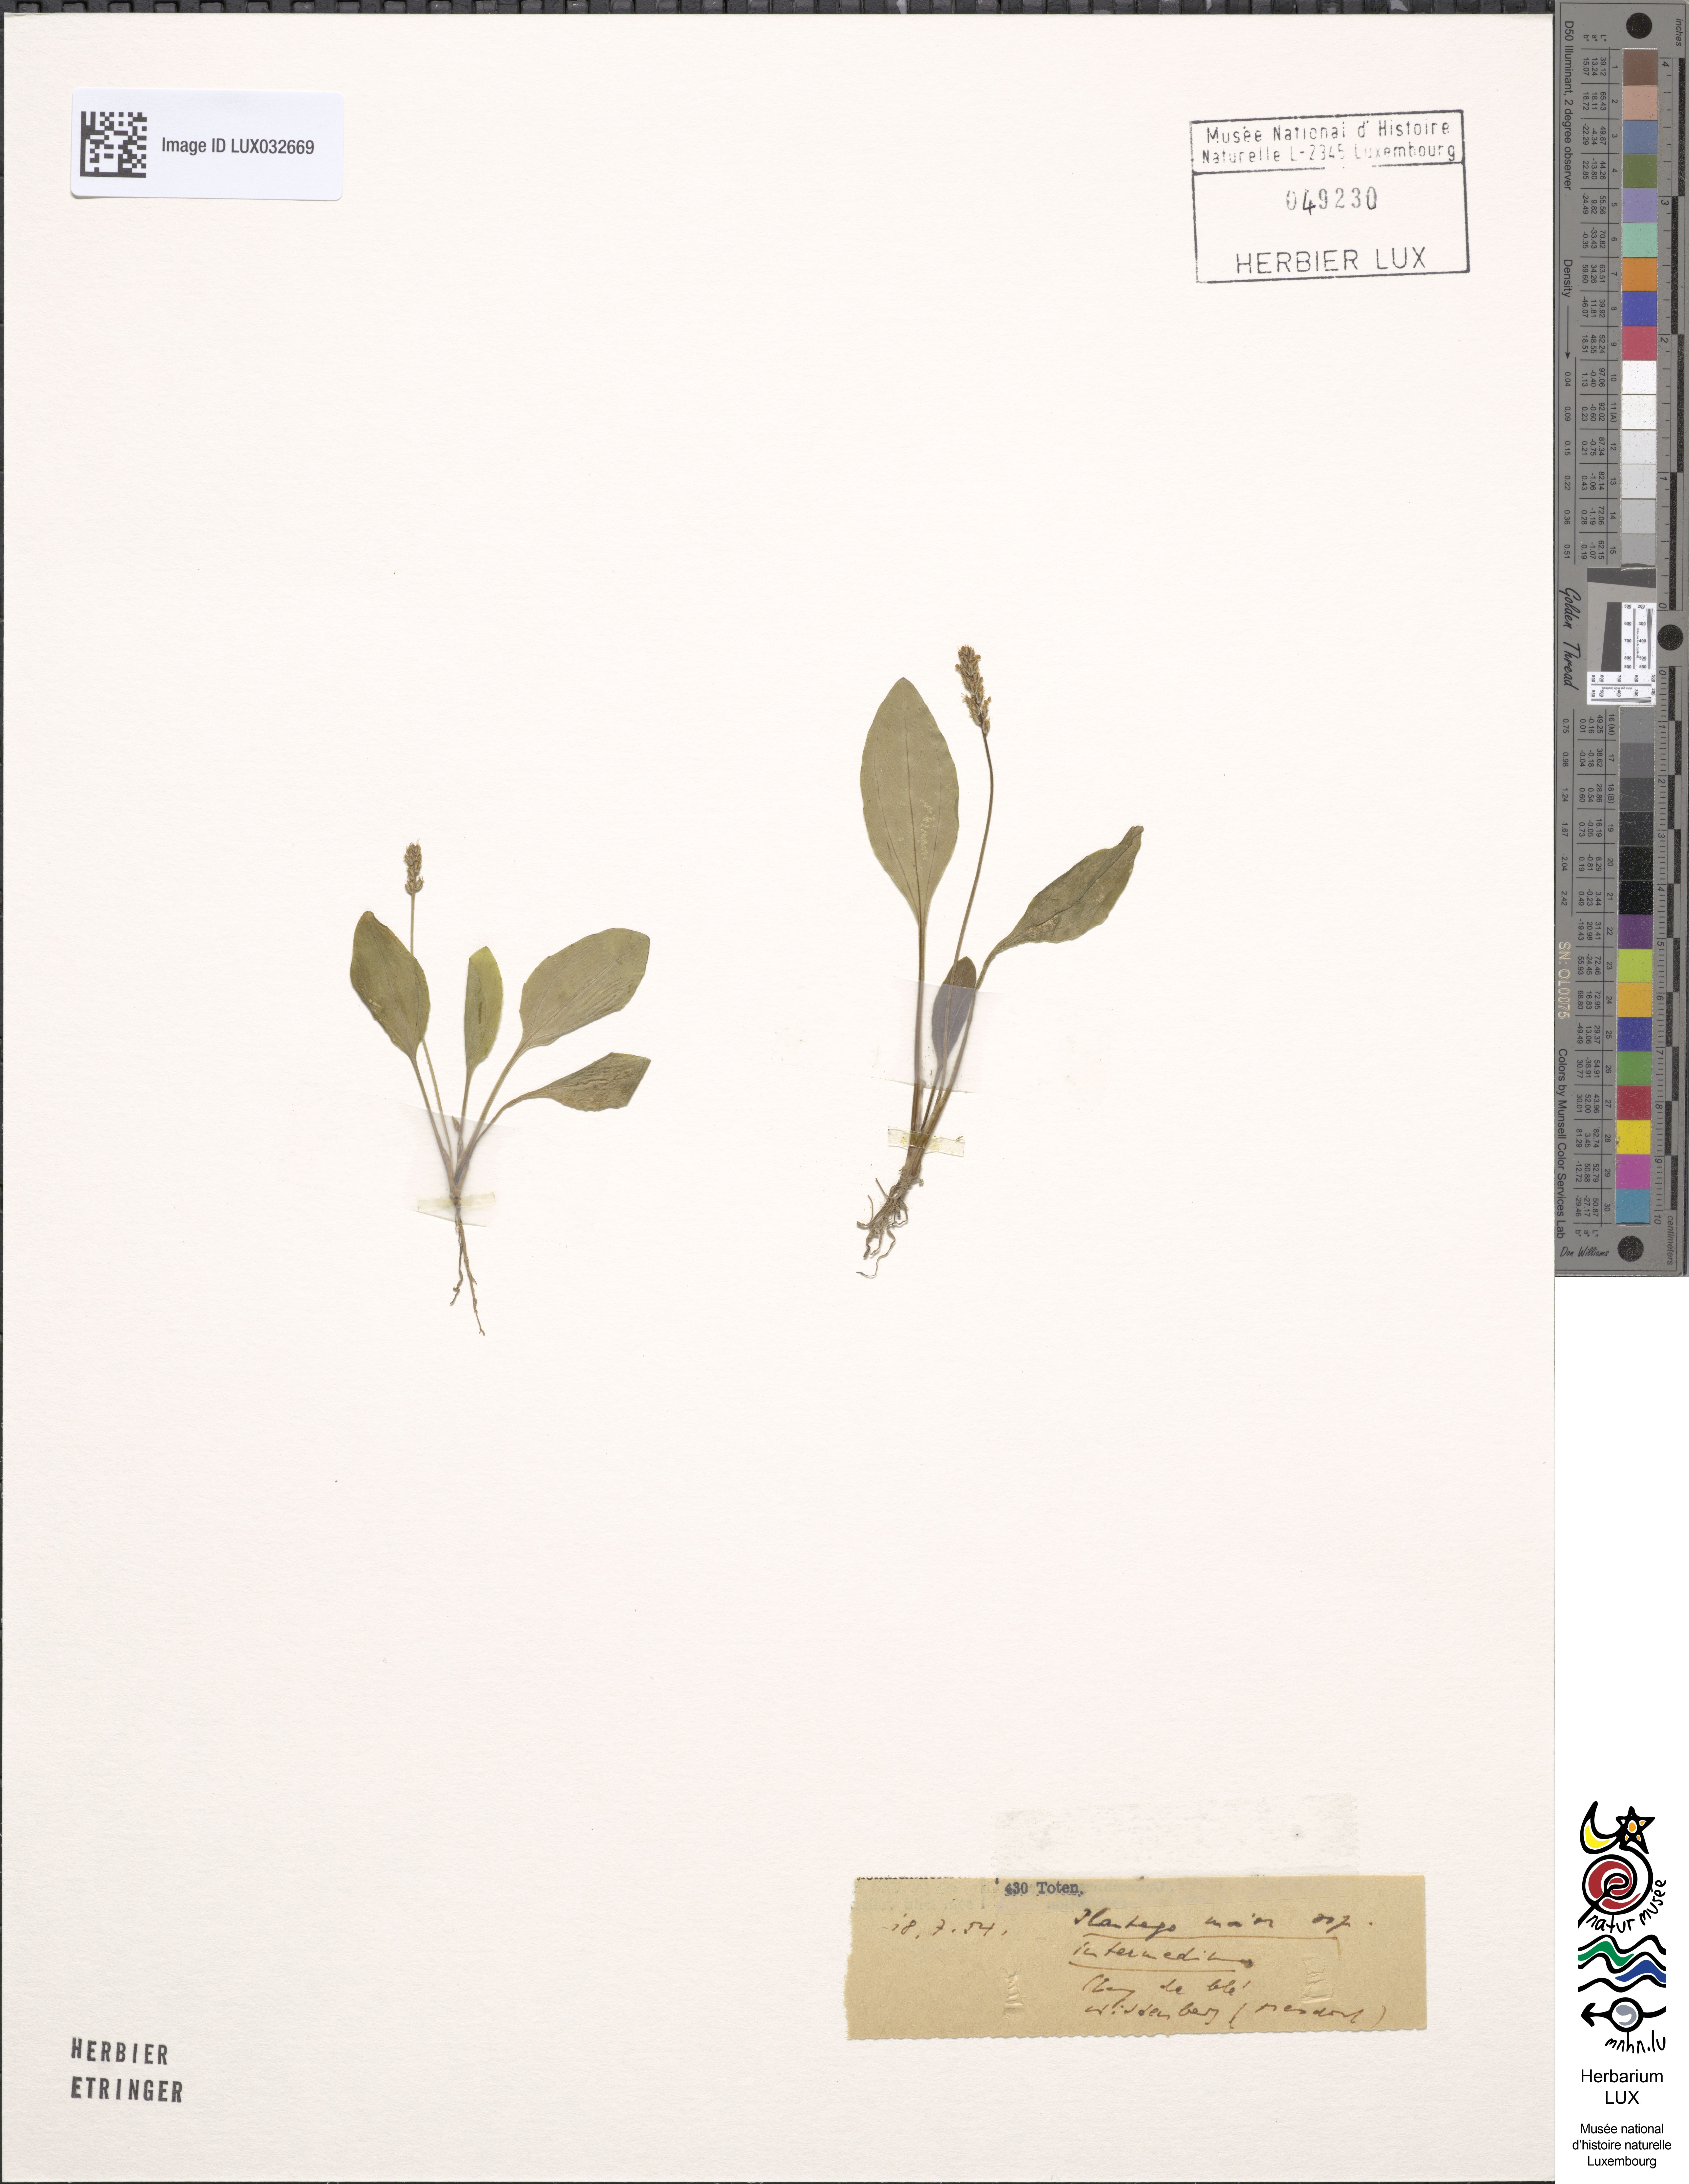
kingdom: Plantae
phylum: Tracheophyta
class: Magnoliopsida
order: Lamiales
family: Plantaginaceae
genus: Plantago
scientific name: Plantago uliginosa
